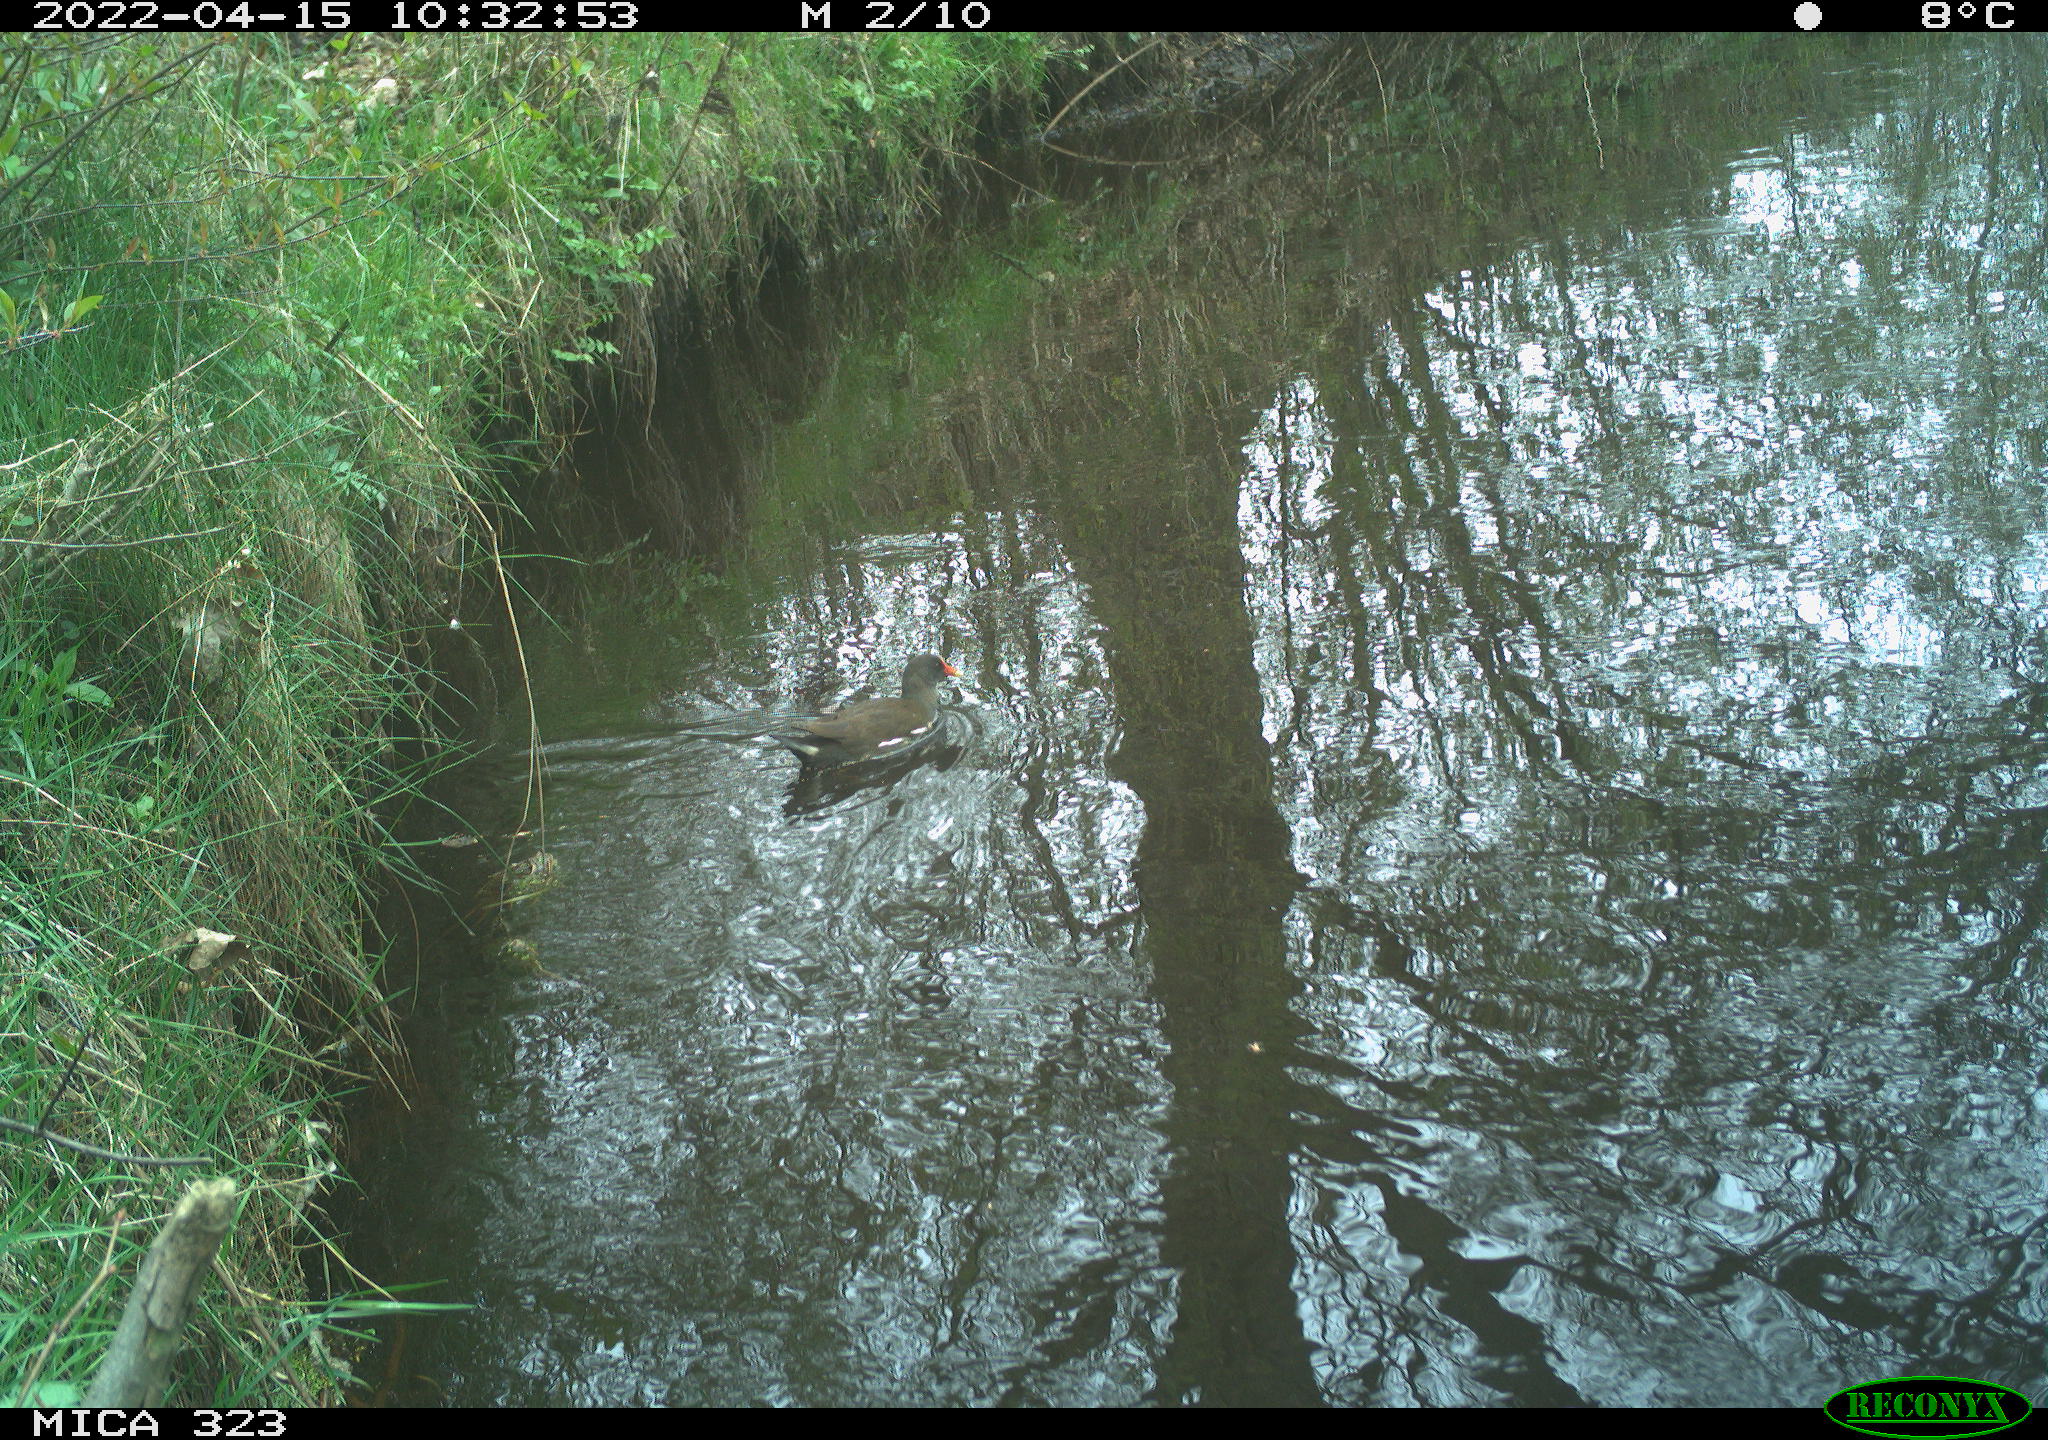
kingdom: Animalia
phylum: Chordata
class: Aves
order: Gruiformes
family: Rallidae
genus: Gallinula
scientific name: Gallinula chloropus
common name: Common moorhen
